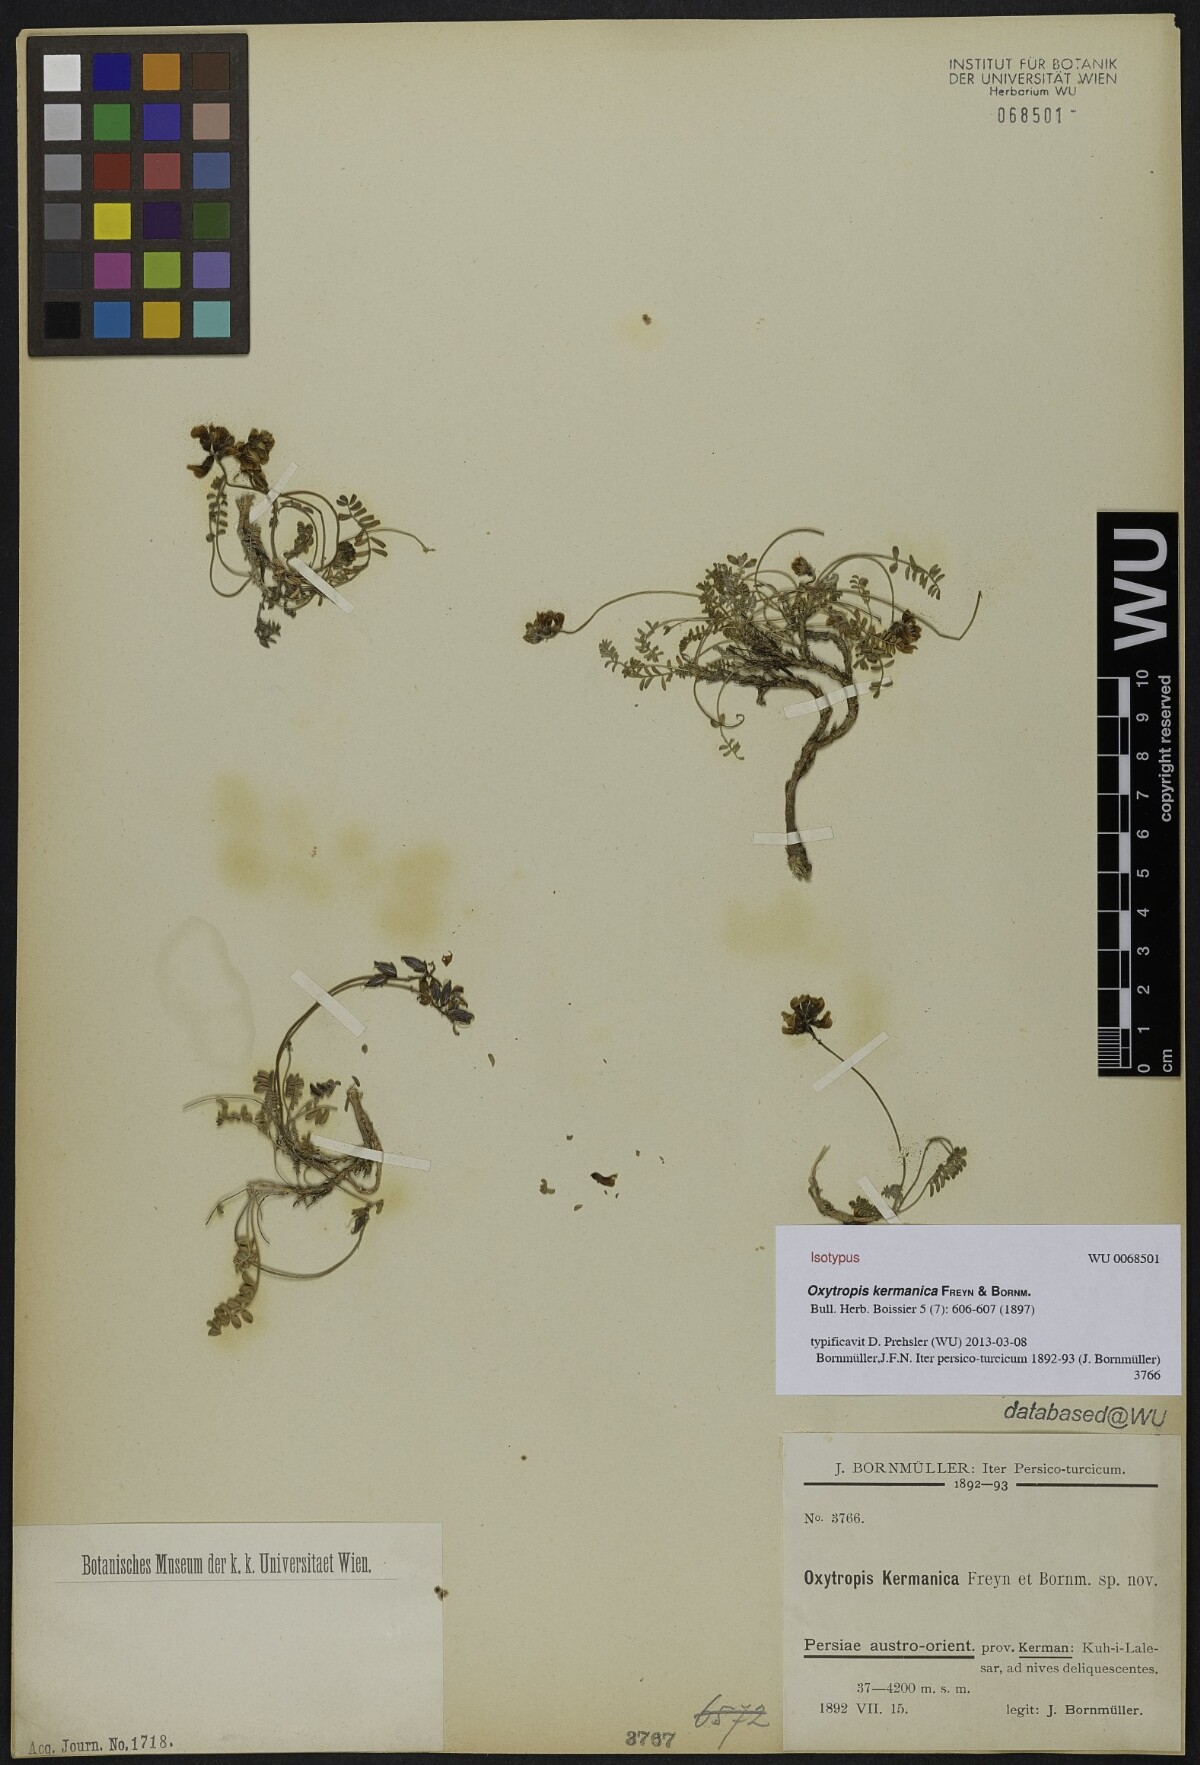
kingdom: Plantae
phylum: Tracheophyta
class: Magnoliopsida
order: Fabales
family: Fabaceae
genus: Astragalus
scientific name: Astragalus daenensis
